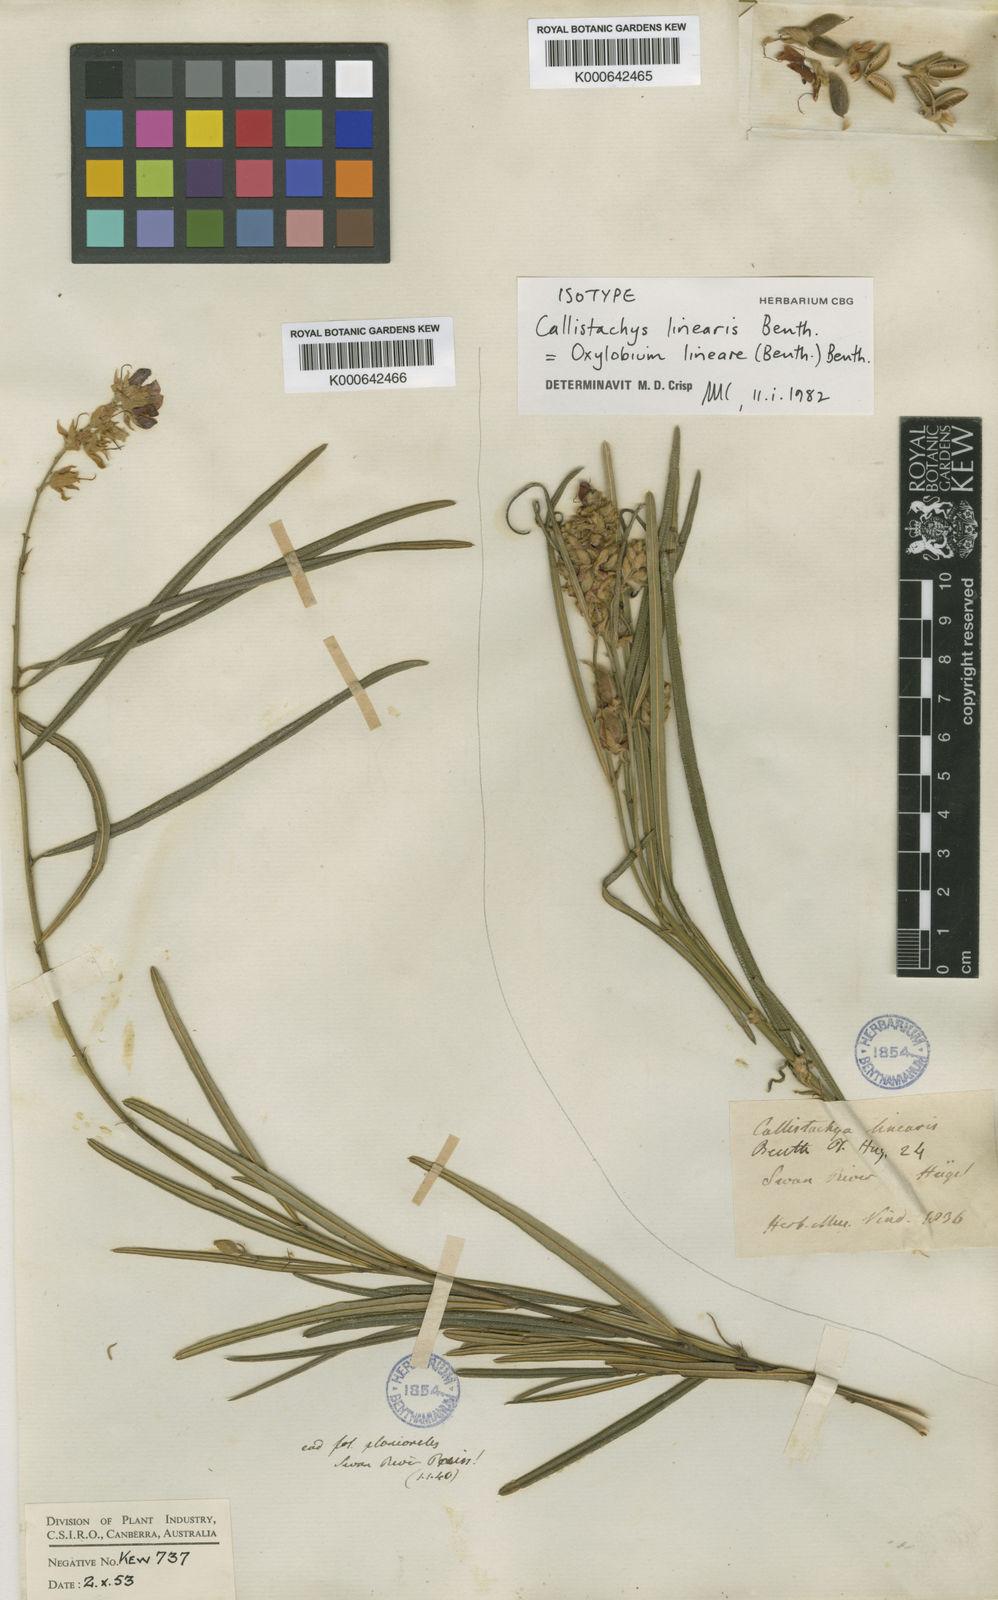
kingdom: Plantae
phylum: Tracheophyta
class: Magnoliopsida
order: Fabales
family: Fabaceae
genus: Gastrolobium
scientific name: Gastrolobium ebracteolatum
